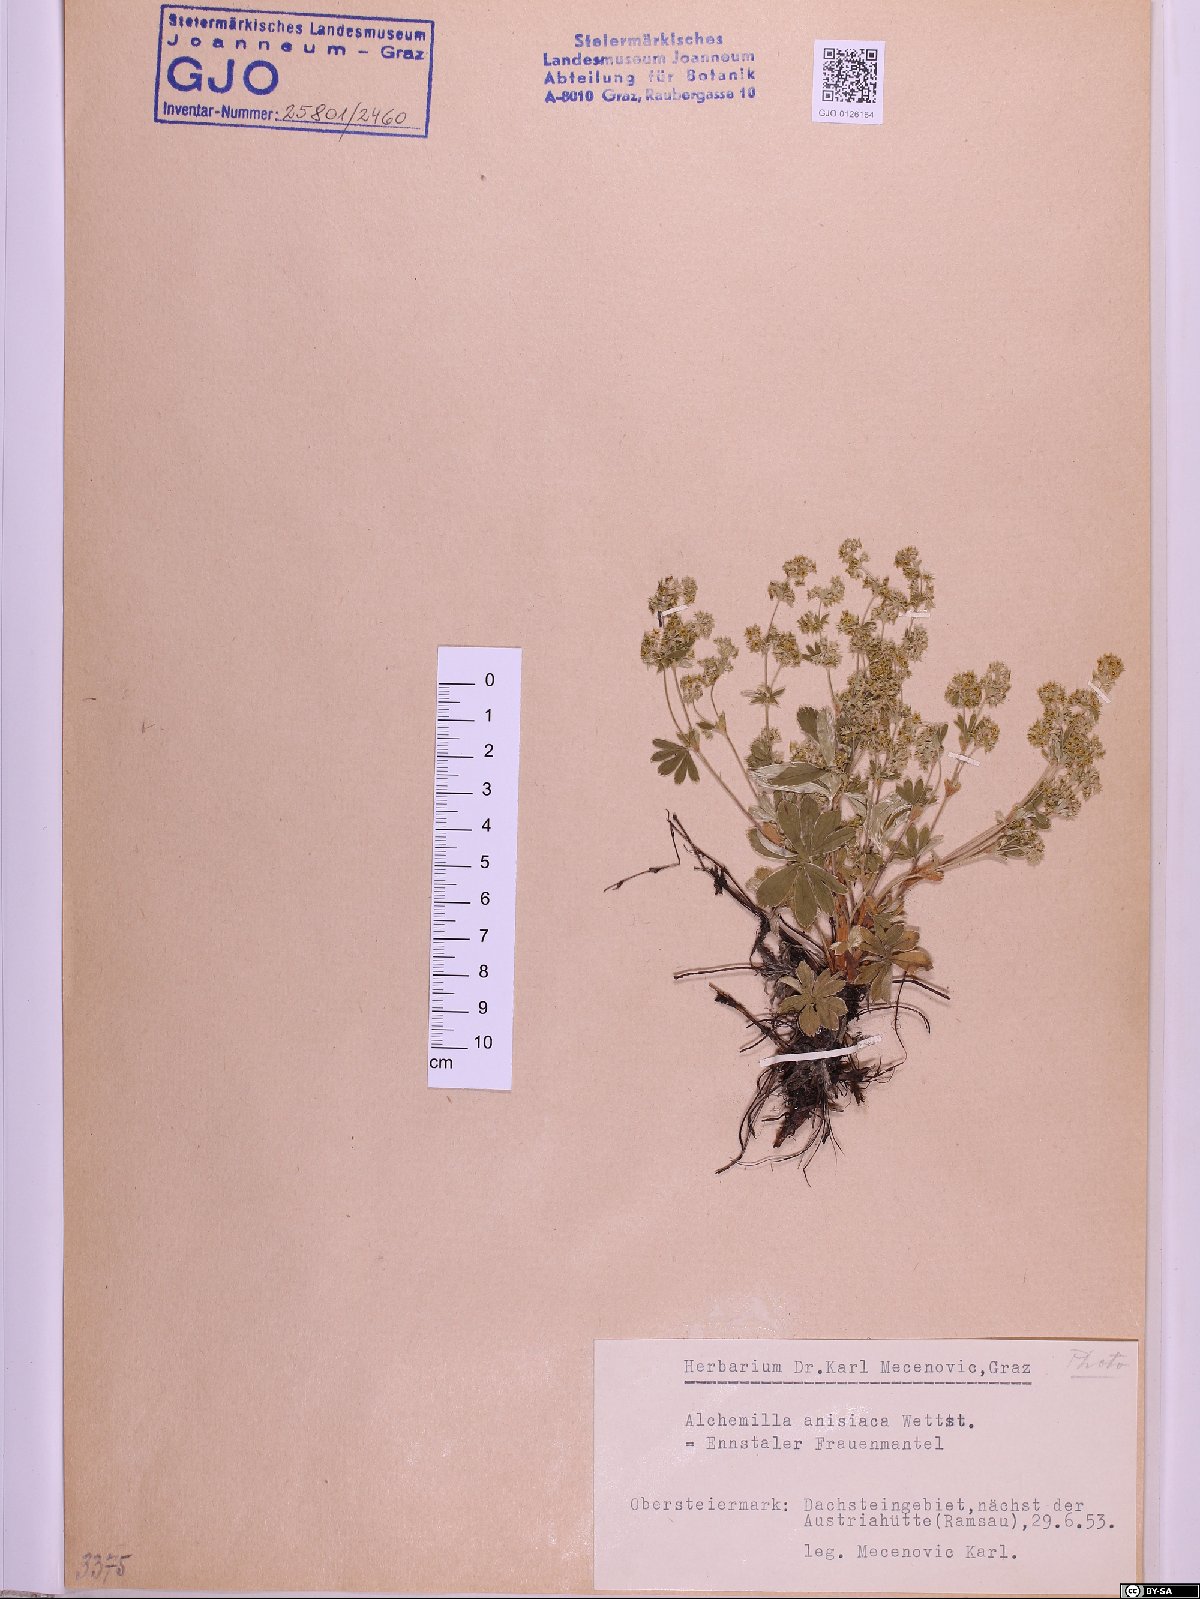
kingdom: Plantae
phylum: Tracheophyta
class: Magnoliopsida
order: Rosales
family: Rosaceae
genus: Alchemilla
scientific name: Alchemilla anisiaca
